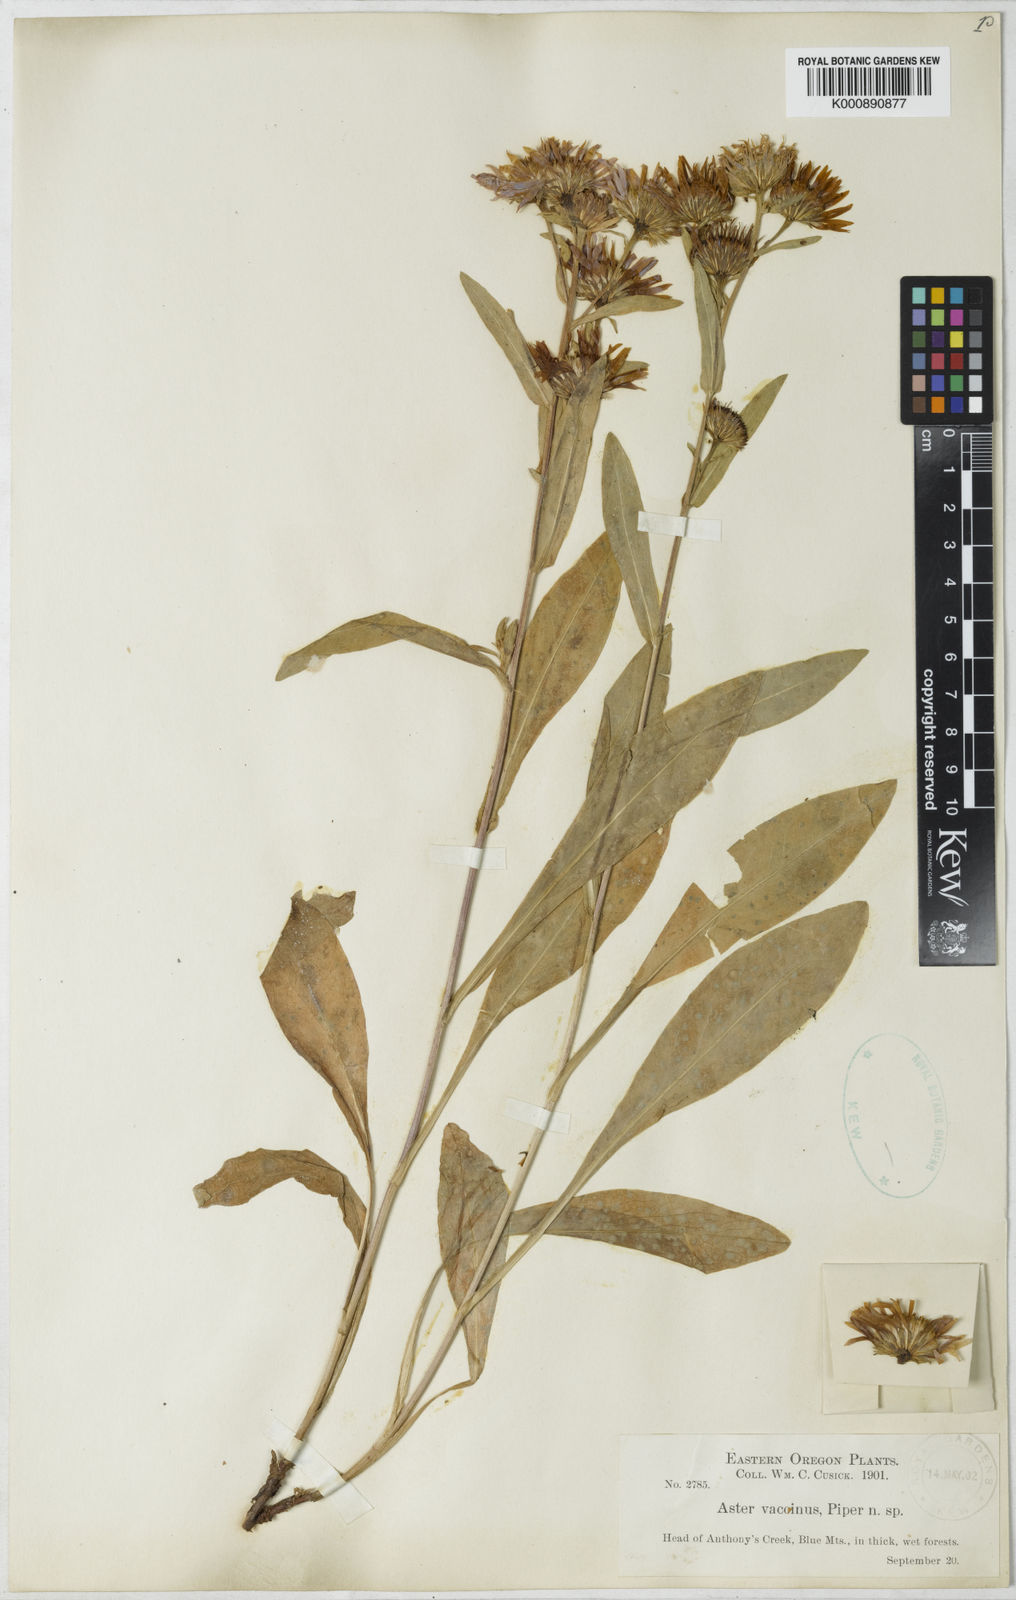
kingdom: Plantae
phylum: Tracheophyta
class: Magnoliopsida
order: Asterales
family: Asteraceae
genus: Aster
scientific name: Aster vaccinus
